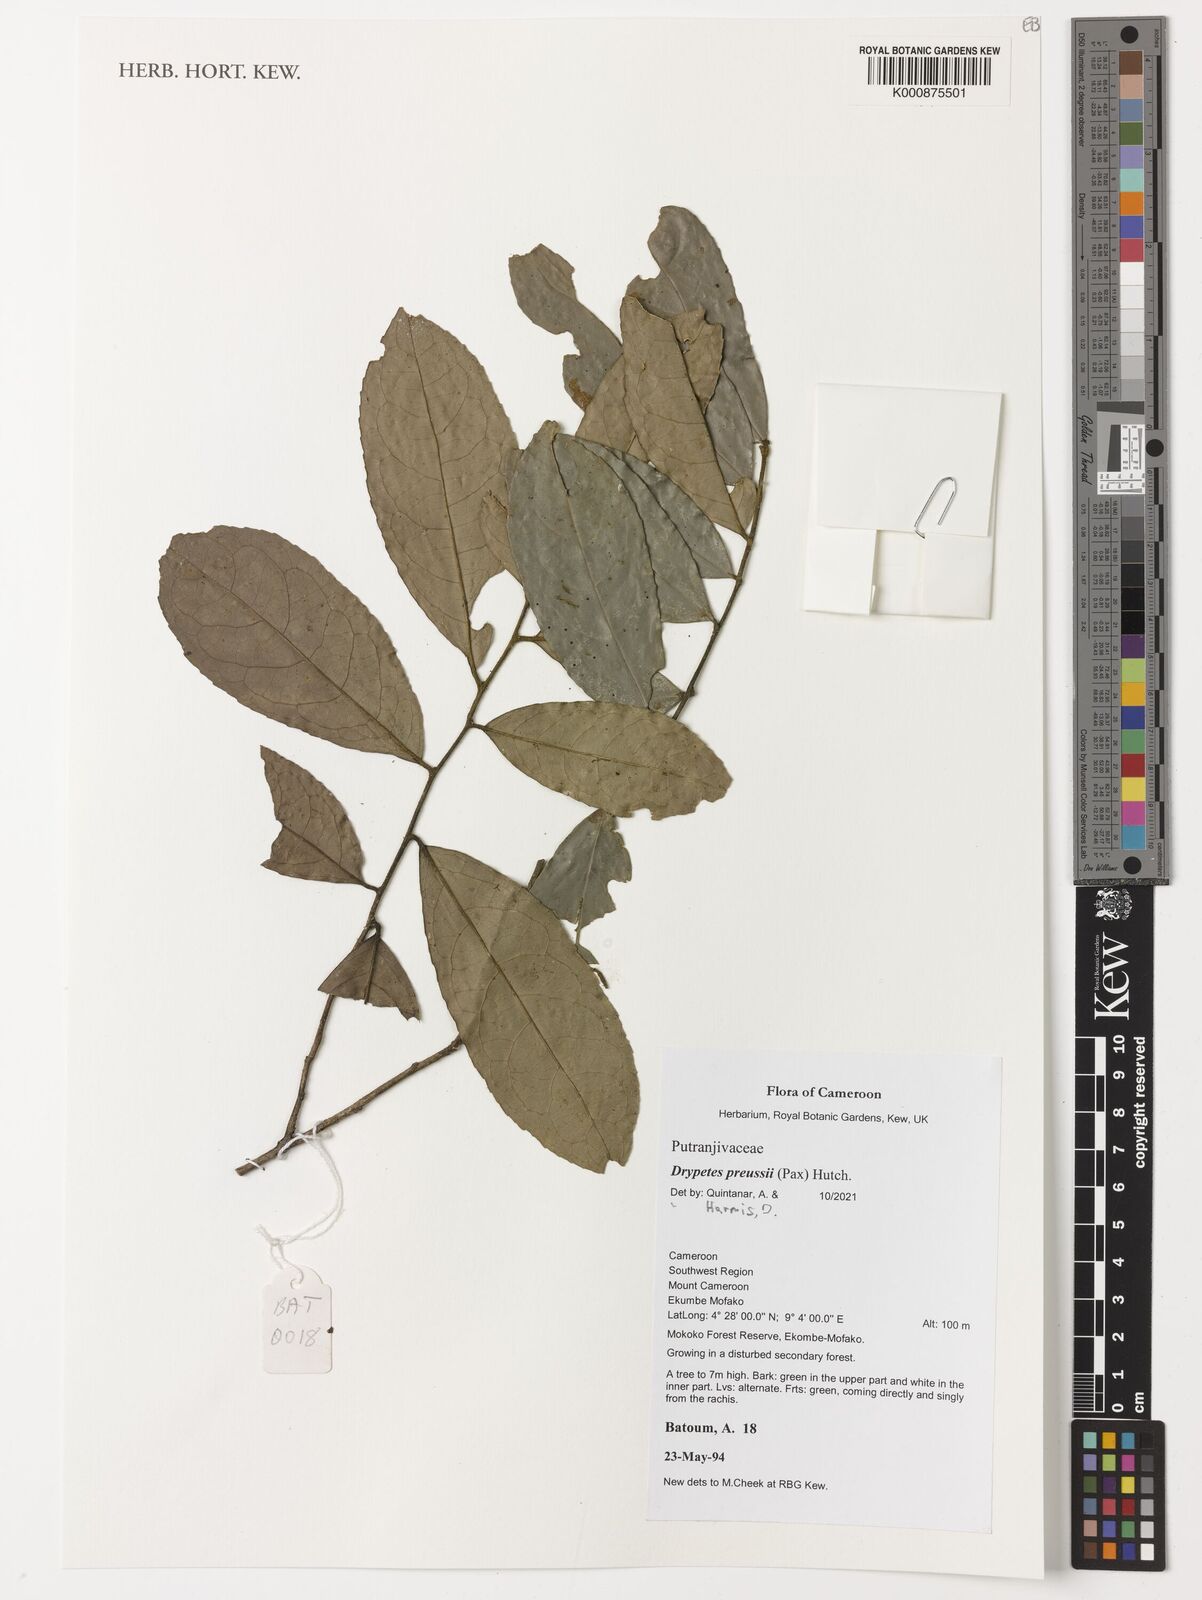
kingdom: Plantae
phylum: Tracheophyta
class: Magnoliopsida
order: Malpighiales
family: Putranjivaceae
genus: Drypetes
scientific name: Drypetes preussii
